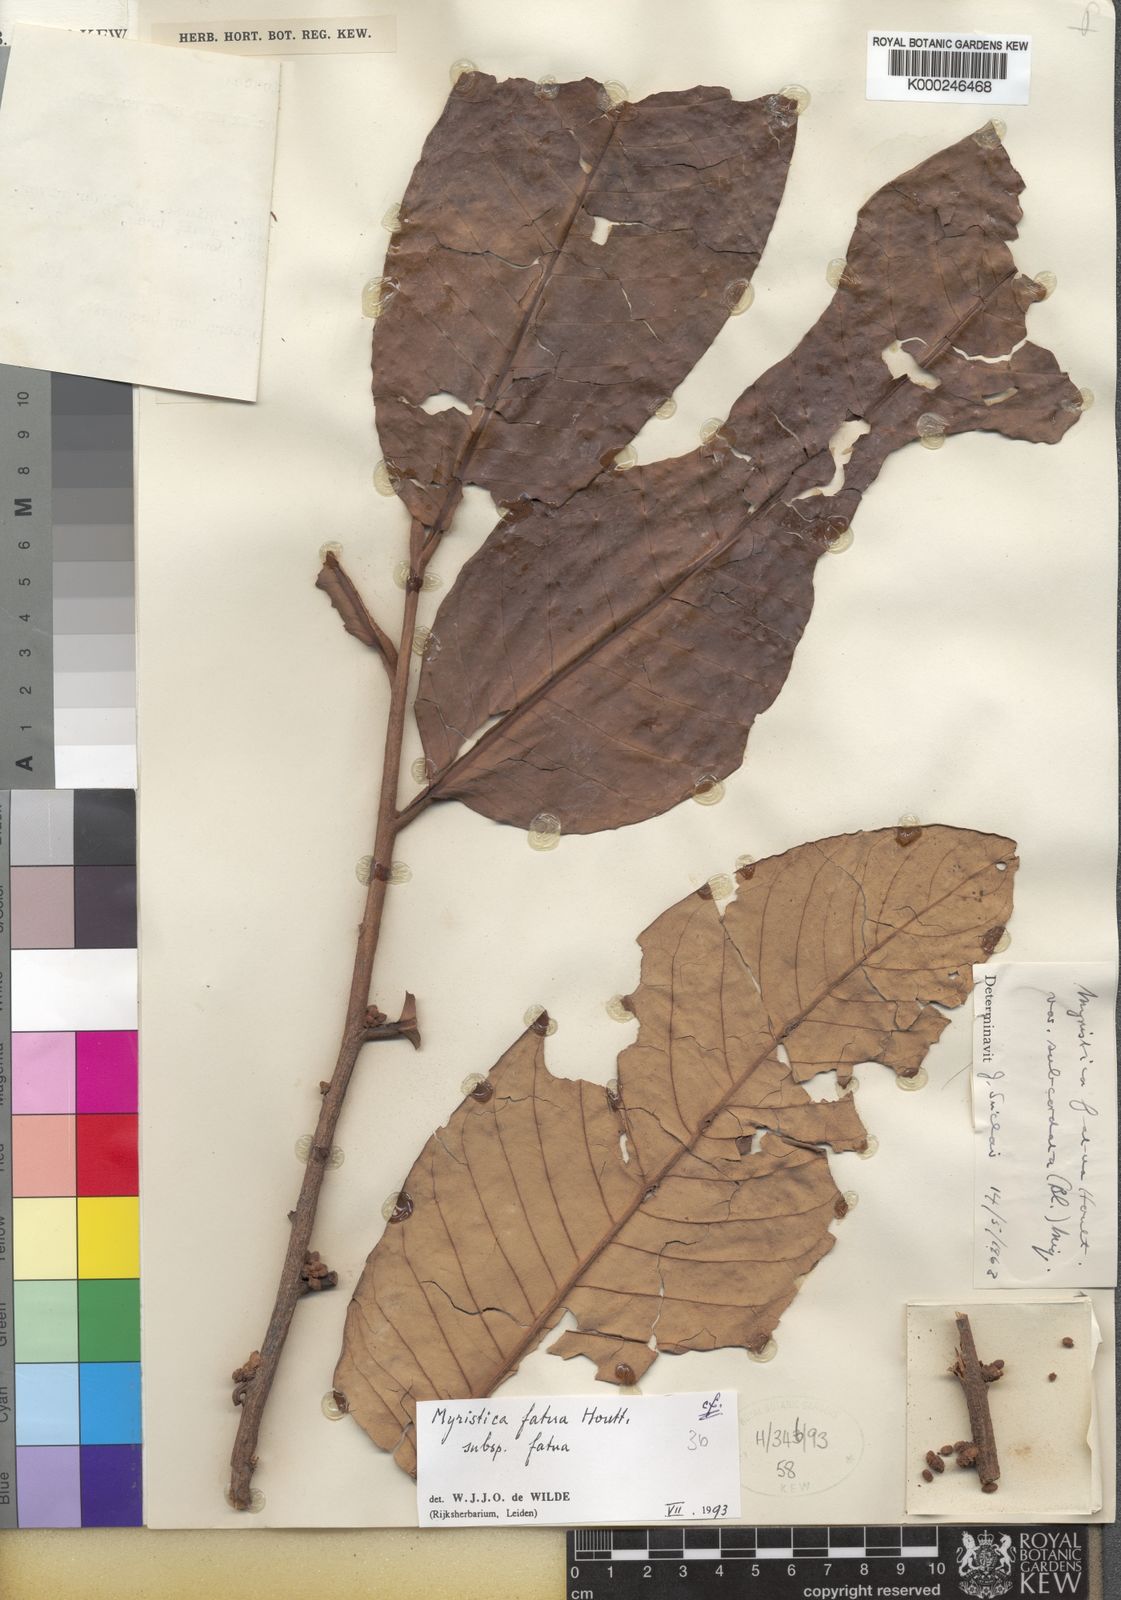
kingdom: Plantae
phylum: Tracheophyta
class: Magnoliopsida
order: Magnoliales
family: Myristicaceae
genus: Myristica
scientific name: Myristica fatua
